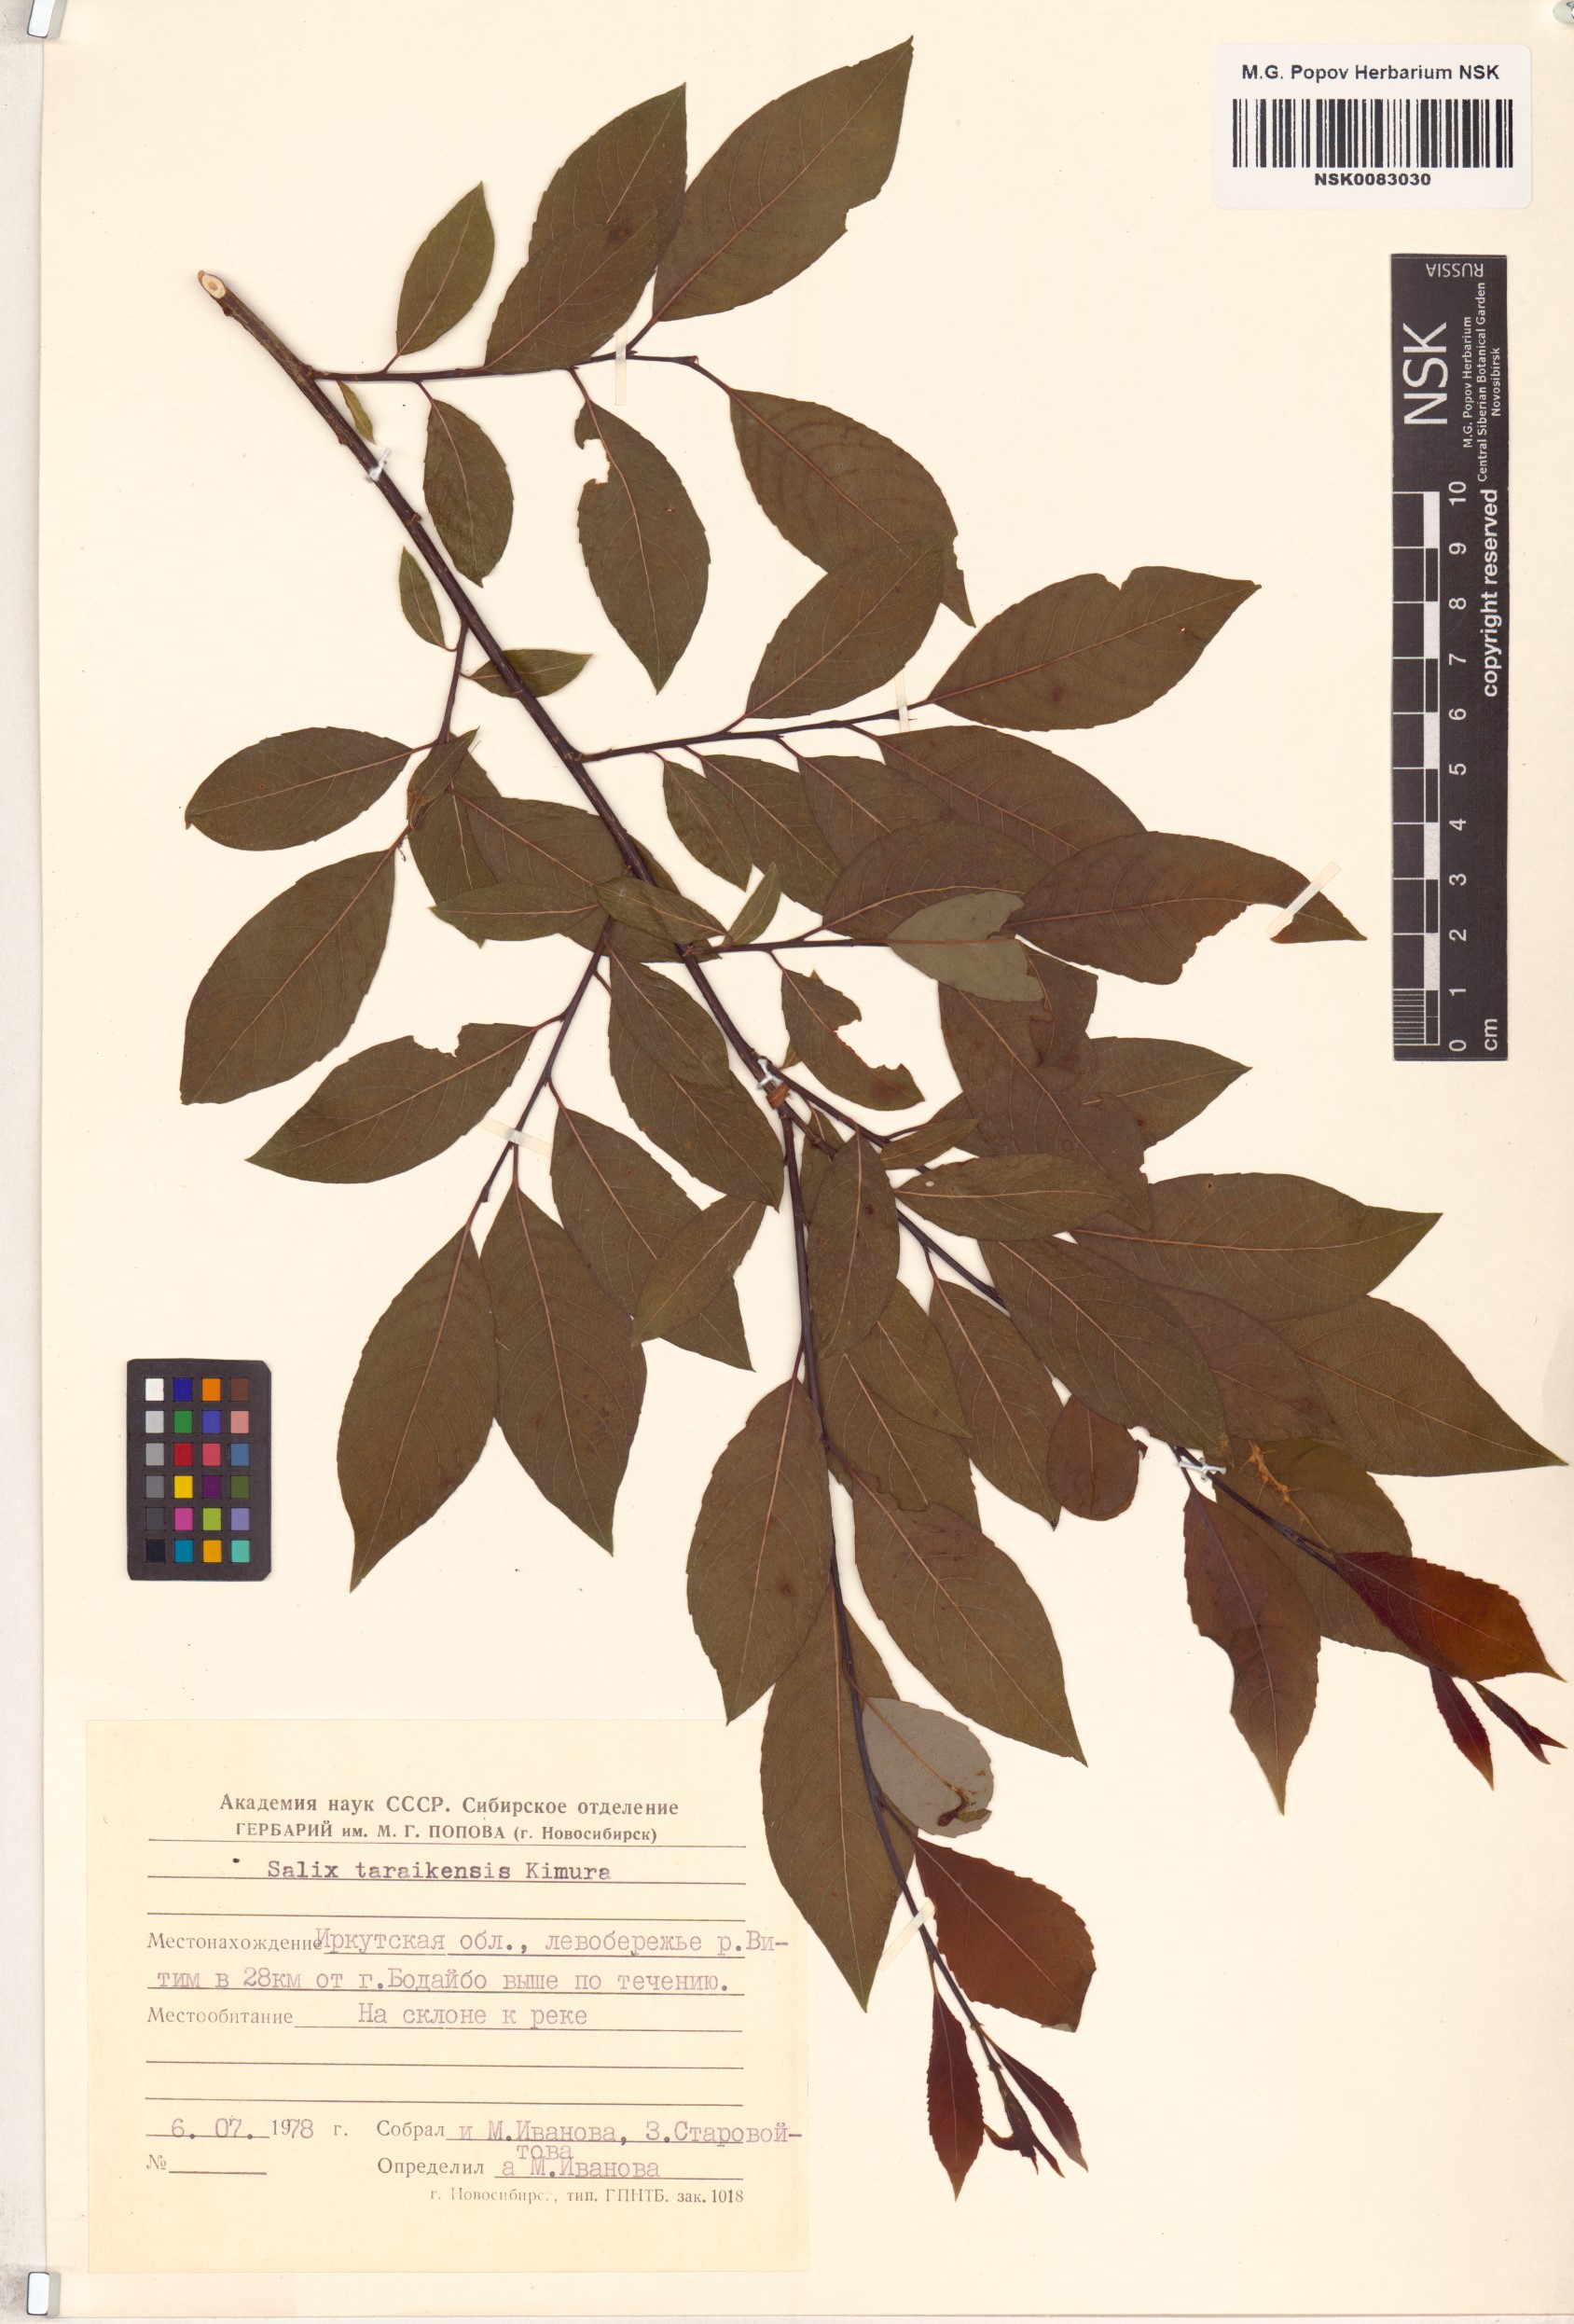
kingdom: Plantae
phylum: Tracheophyta
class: Magnoliopsida
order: Malpighiales
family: Salicaceae
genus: Salix
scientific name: Salix taraikensis
